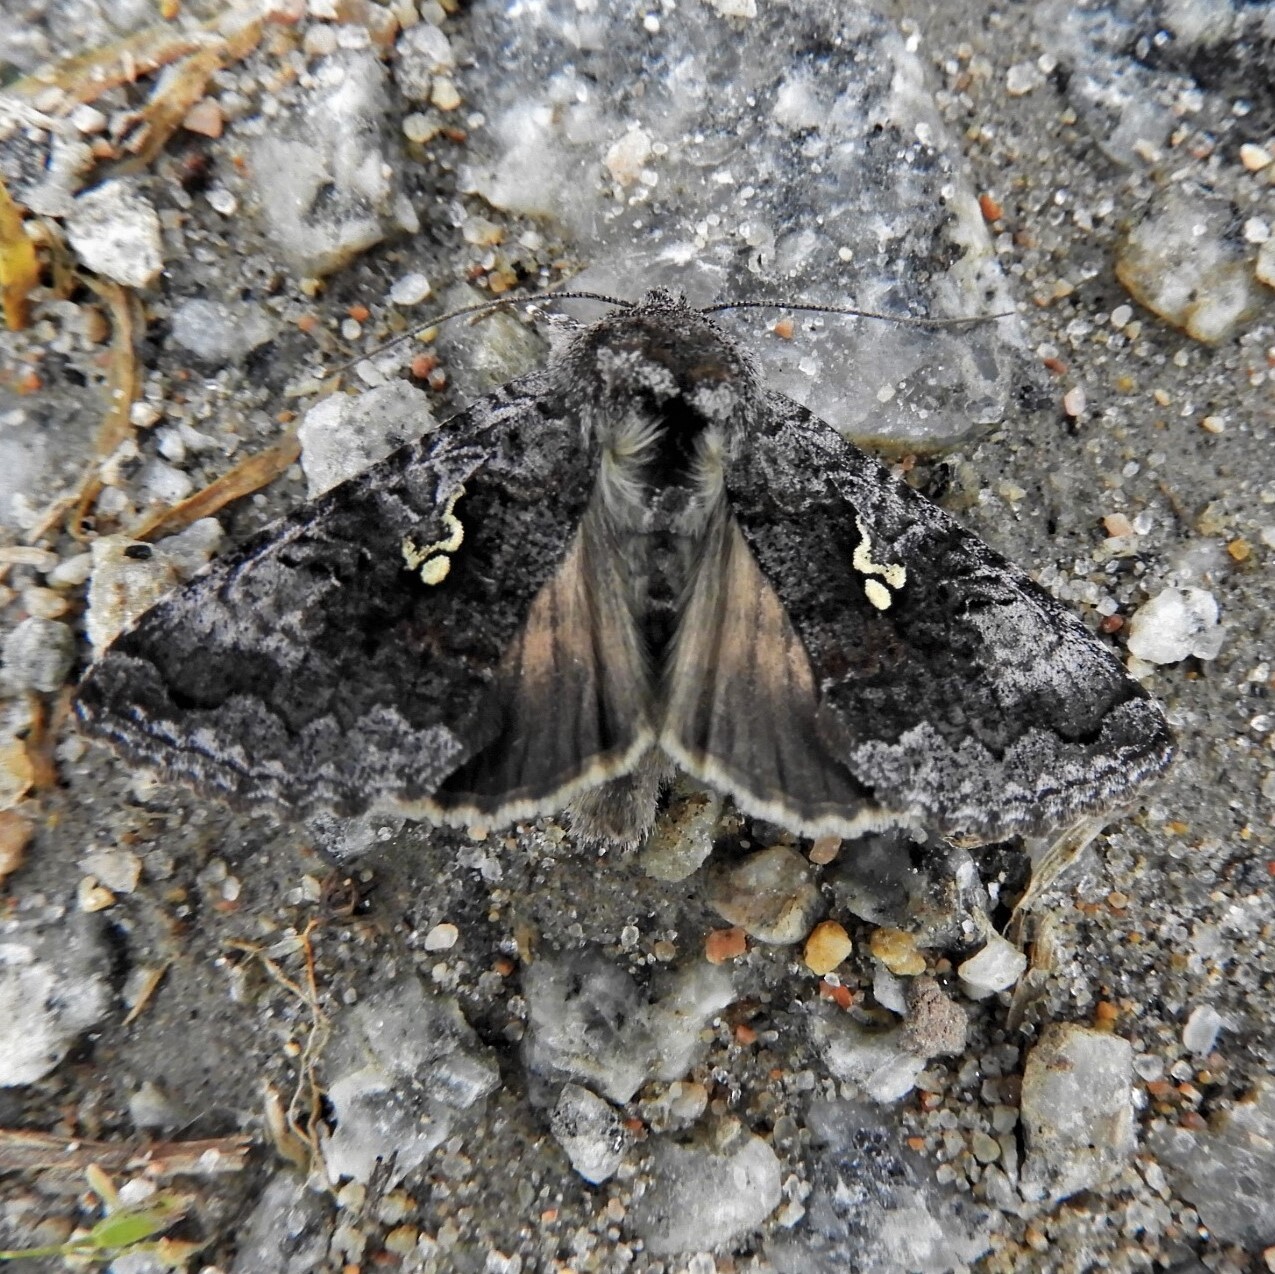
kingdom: Animalia
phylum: Arthropoda
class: Insecta
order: Lepidoptera
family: Noctuidae
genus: Syngrapha
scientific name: Syngrapha interrogationis
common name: Scarce silver y
